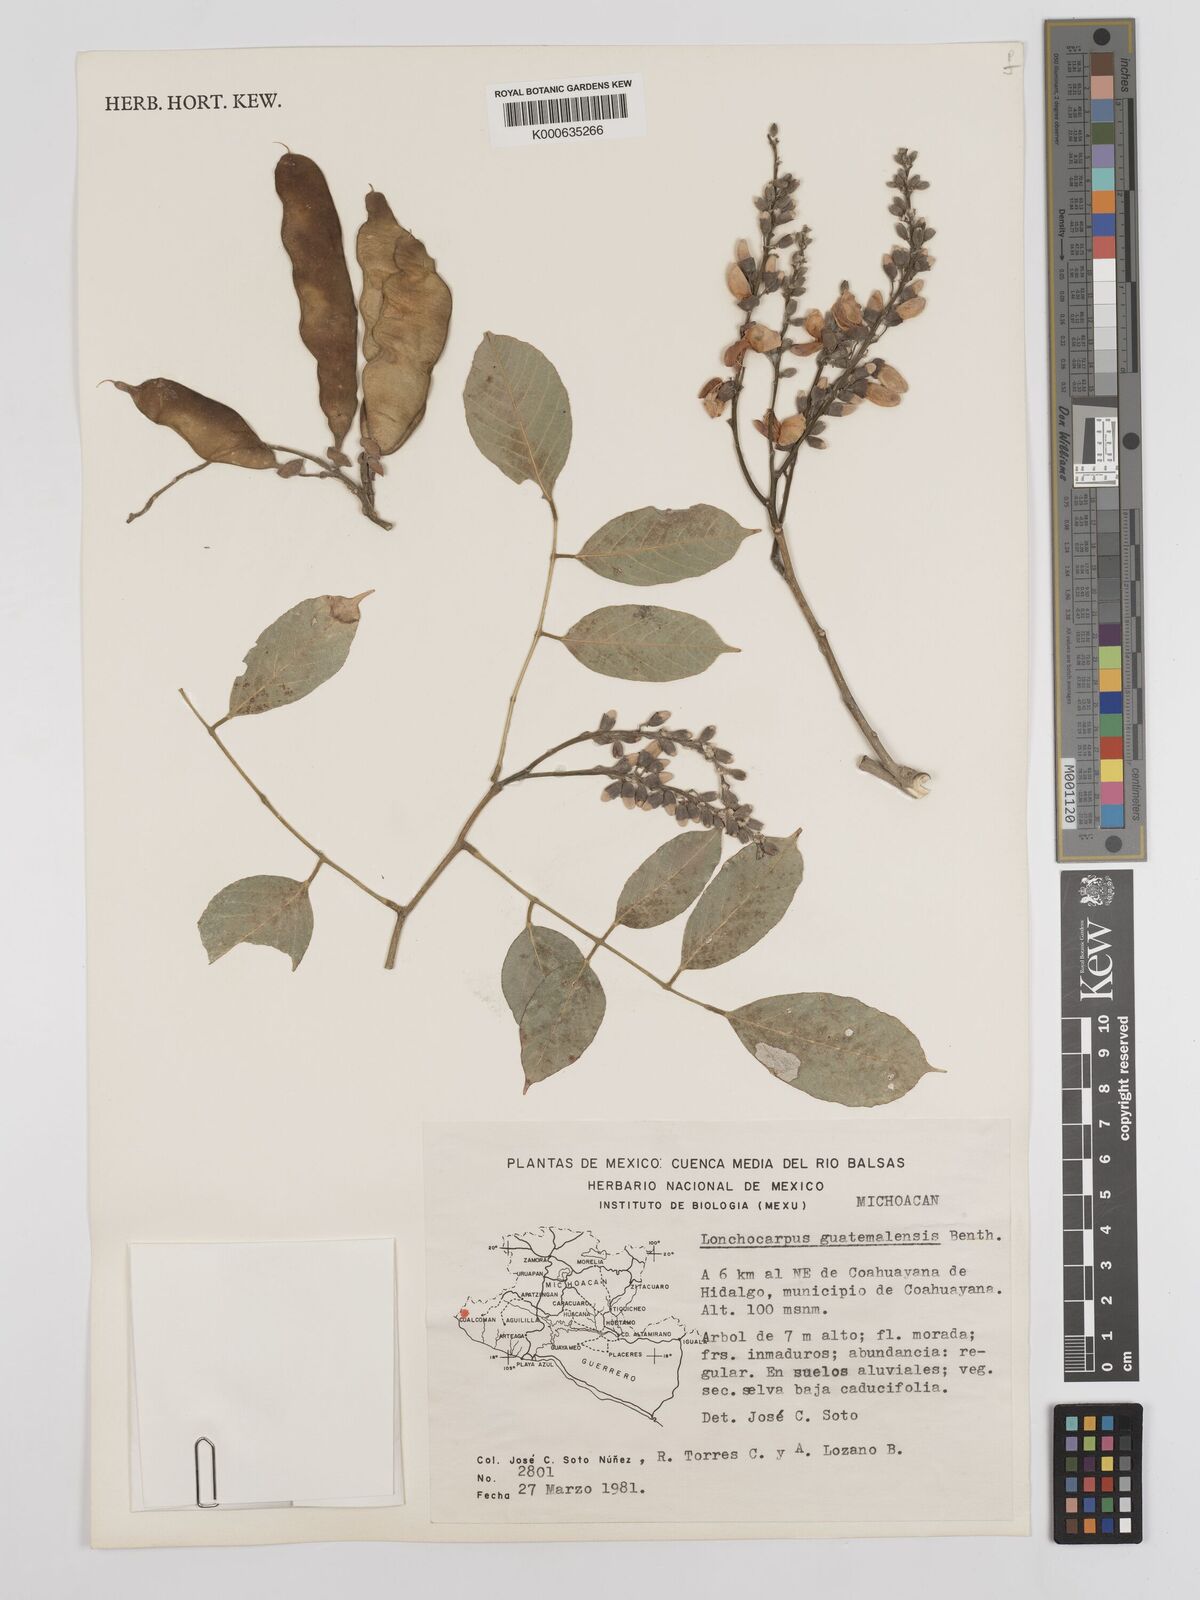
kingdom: Plantae
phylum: Tracheophyta
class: Magnoliopsida
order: Fabales
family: Fabaceae
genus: Lonchocarpus
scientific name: Lonchocarpus guatemalensis
